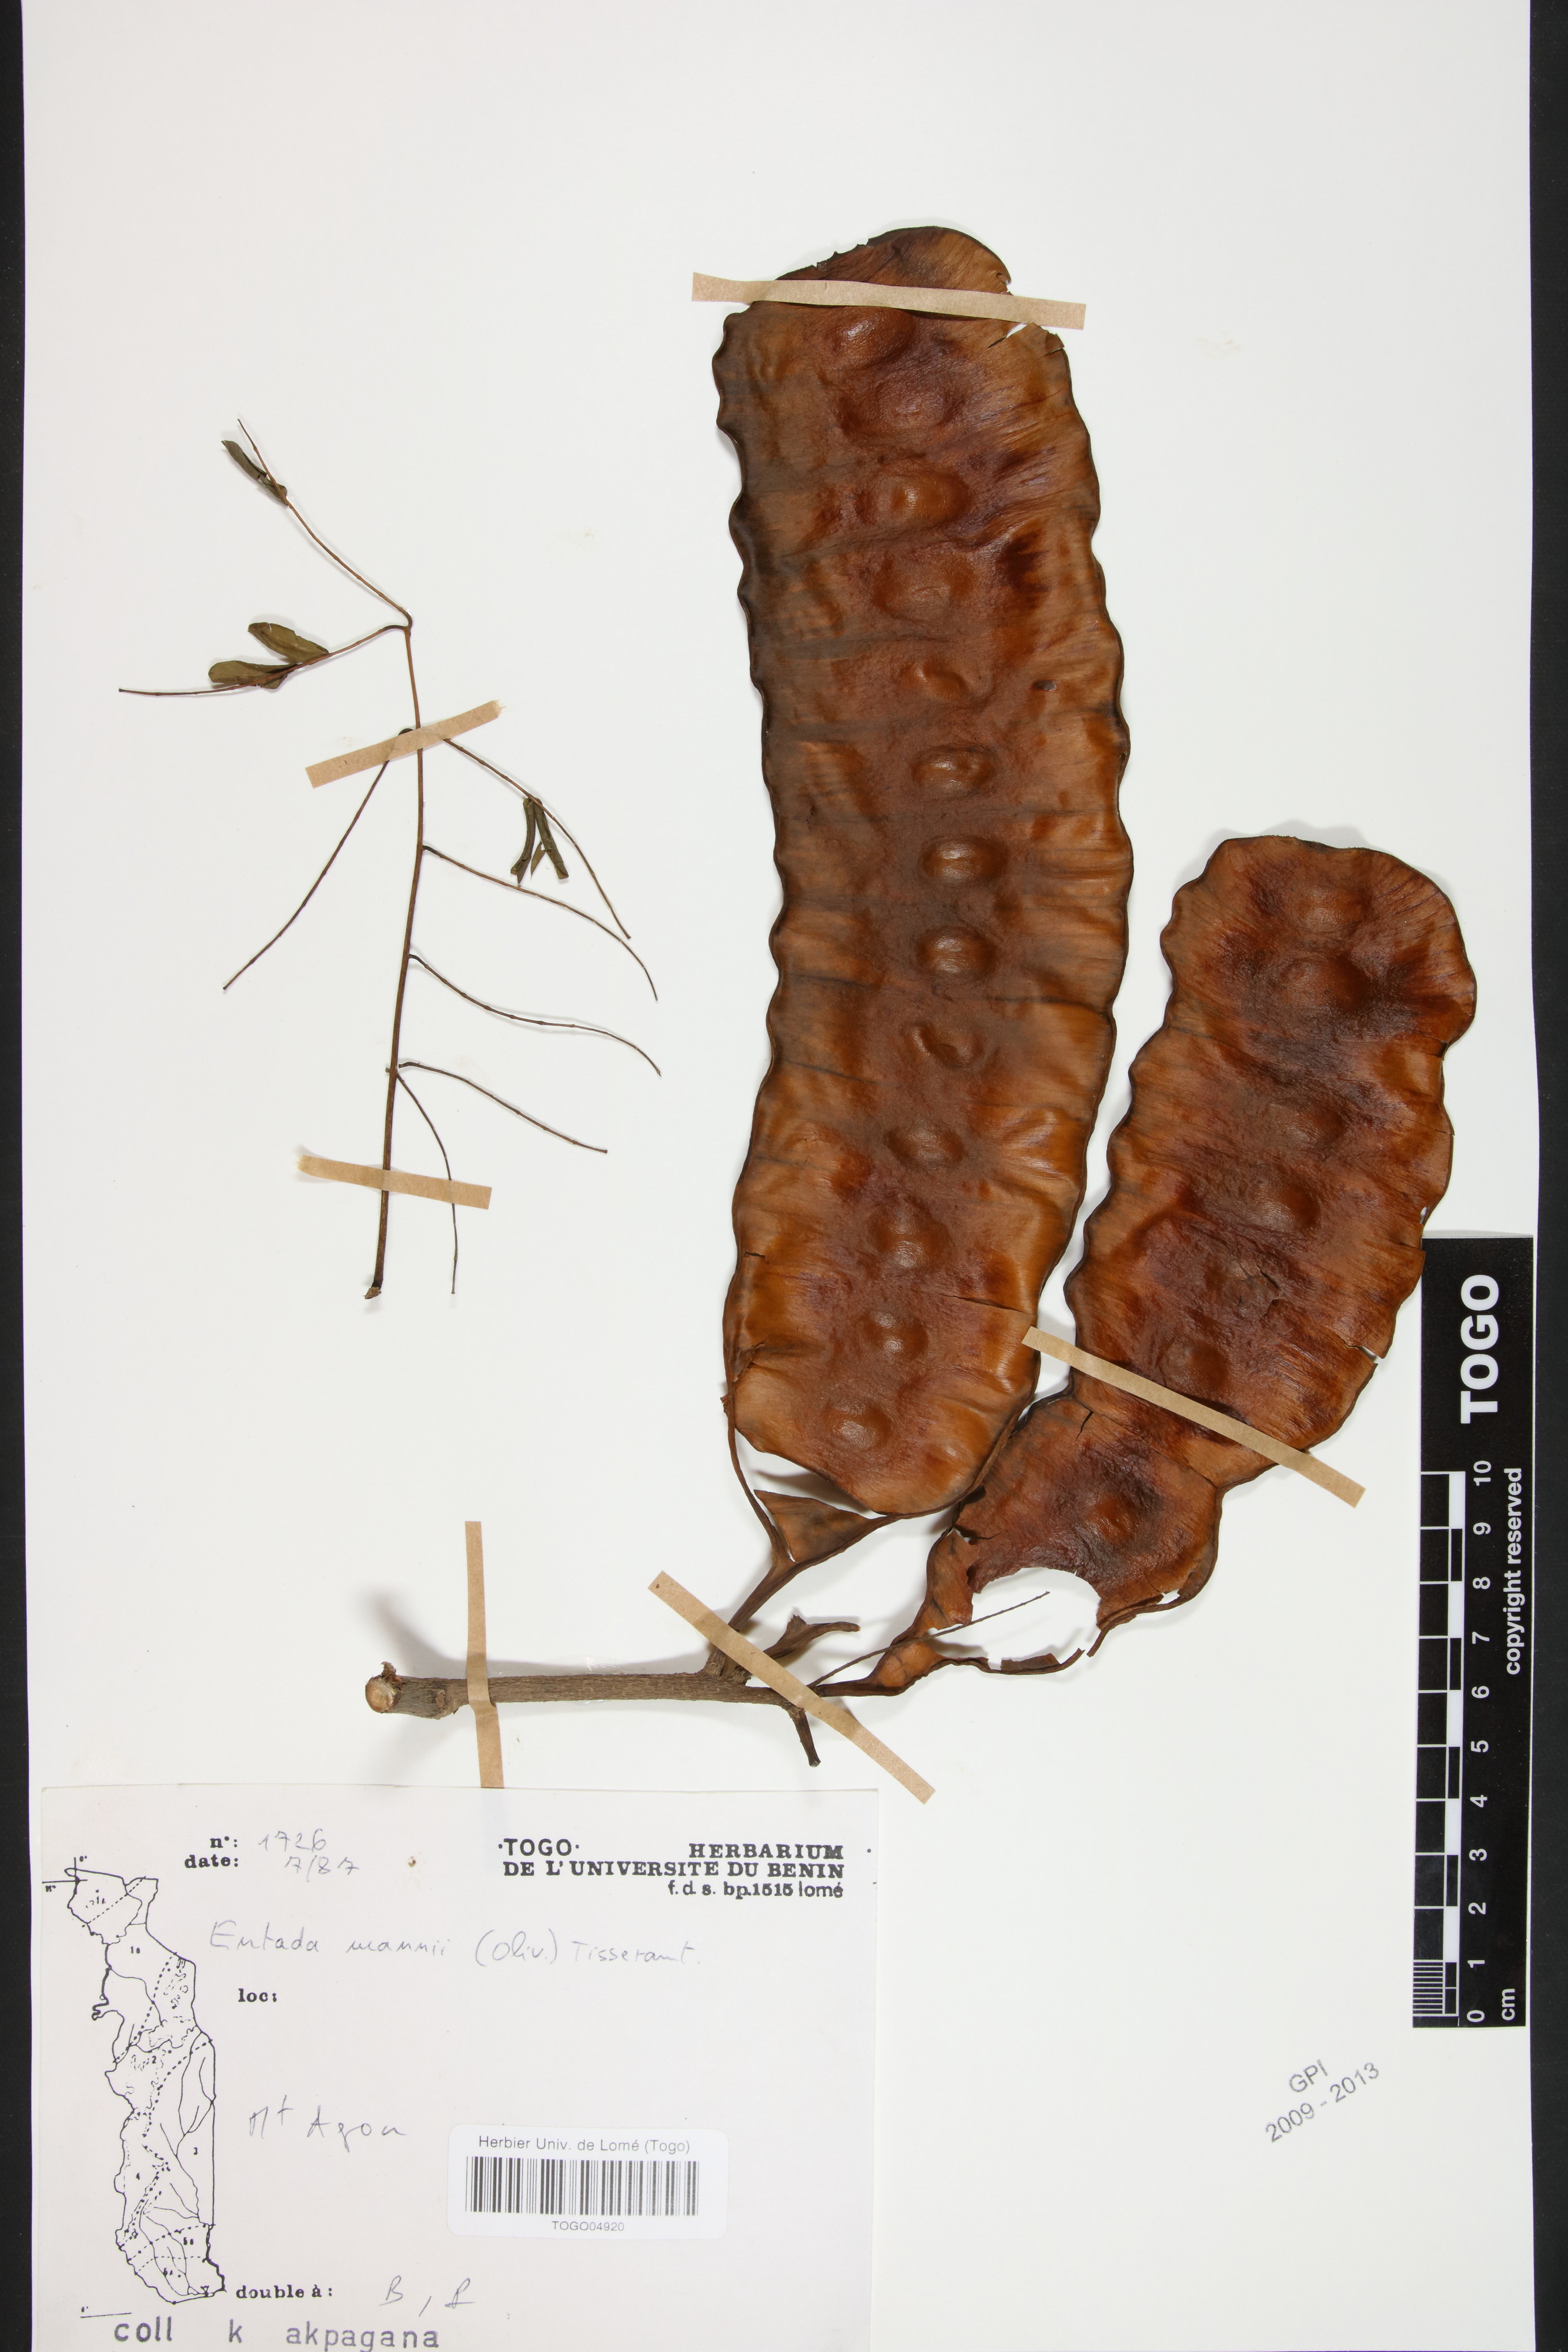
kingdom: Plantae
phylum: Tracheophyta
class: Magnoliopsida
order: Fabales
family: Fabaceae
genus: Entada
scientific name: Entada mannii
